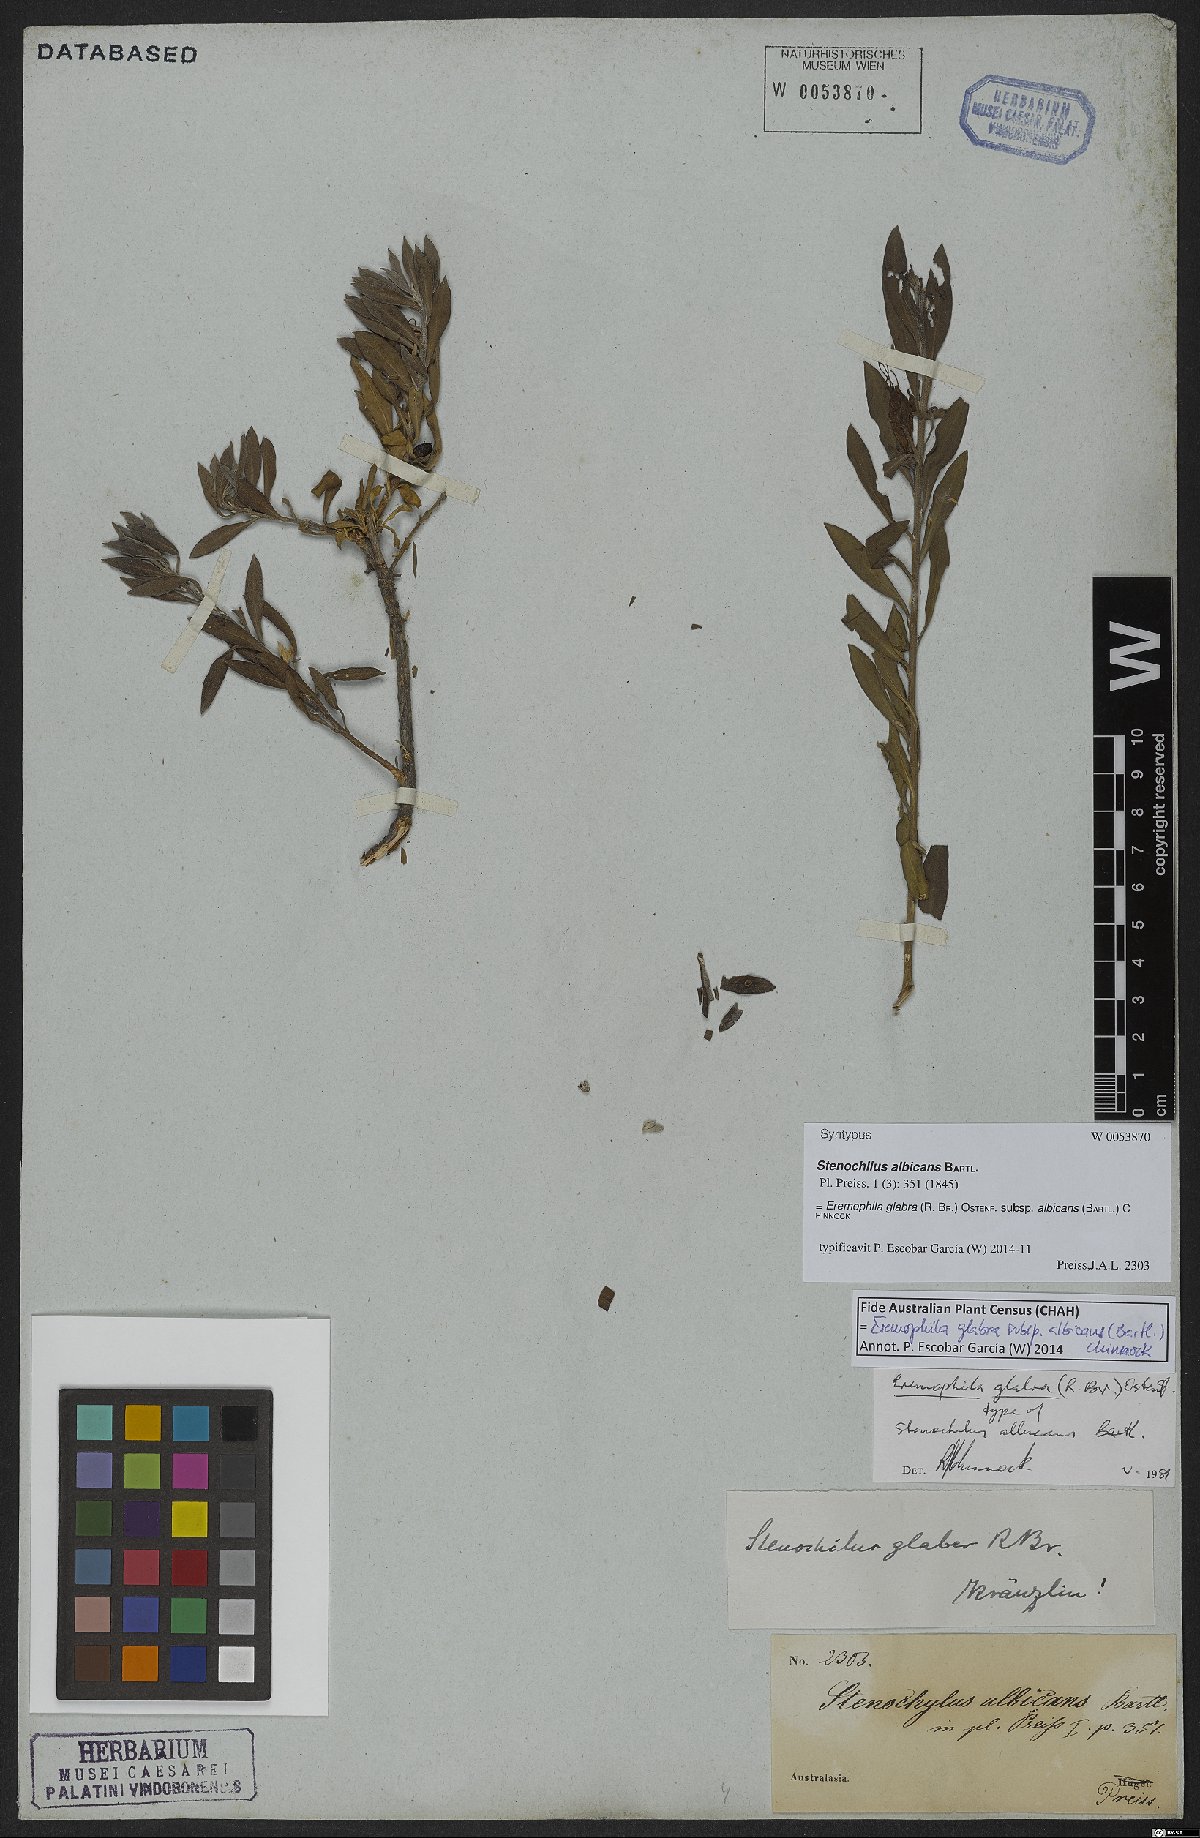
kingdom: Plantae
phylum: Tracheophyta
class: Magnoliopsida
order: Lamiales
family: Scrophulariaceae
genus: Eremophila
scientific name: Eremophila glabra
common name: Black-fuchsia
